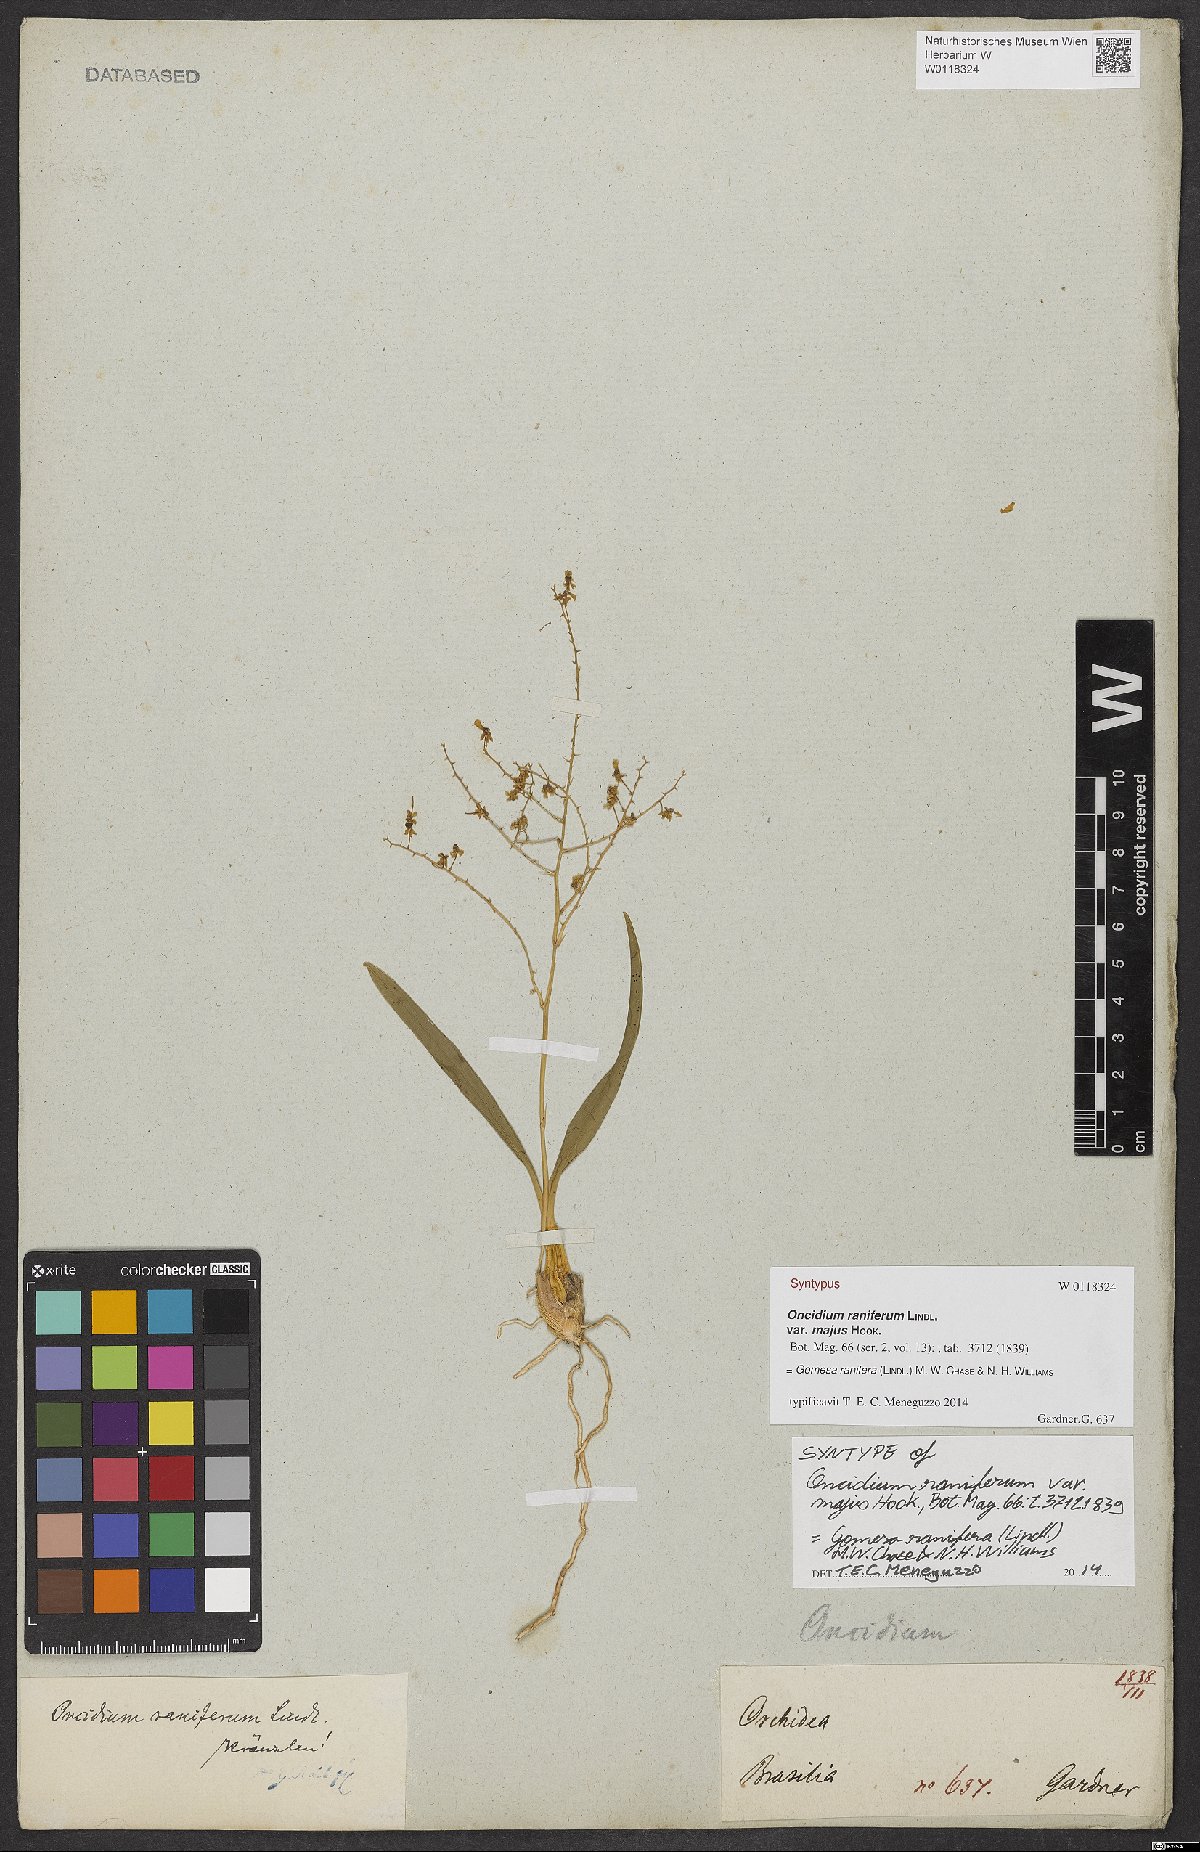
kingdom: Plantae
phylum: Tracheophyta
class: Liliopsida
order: Asparagales
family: Orchidaceae
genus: Gomesa
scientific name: Gomesa ranifera
